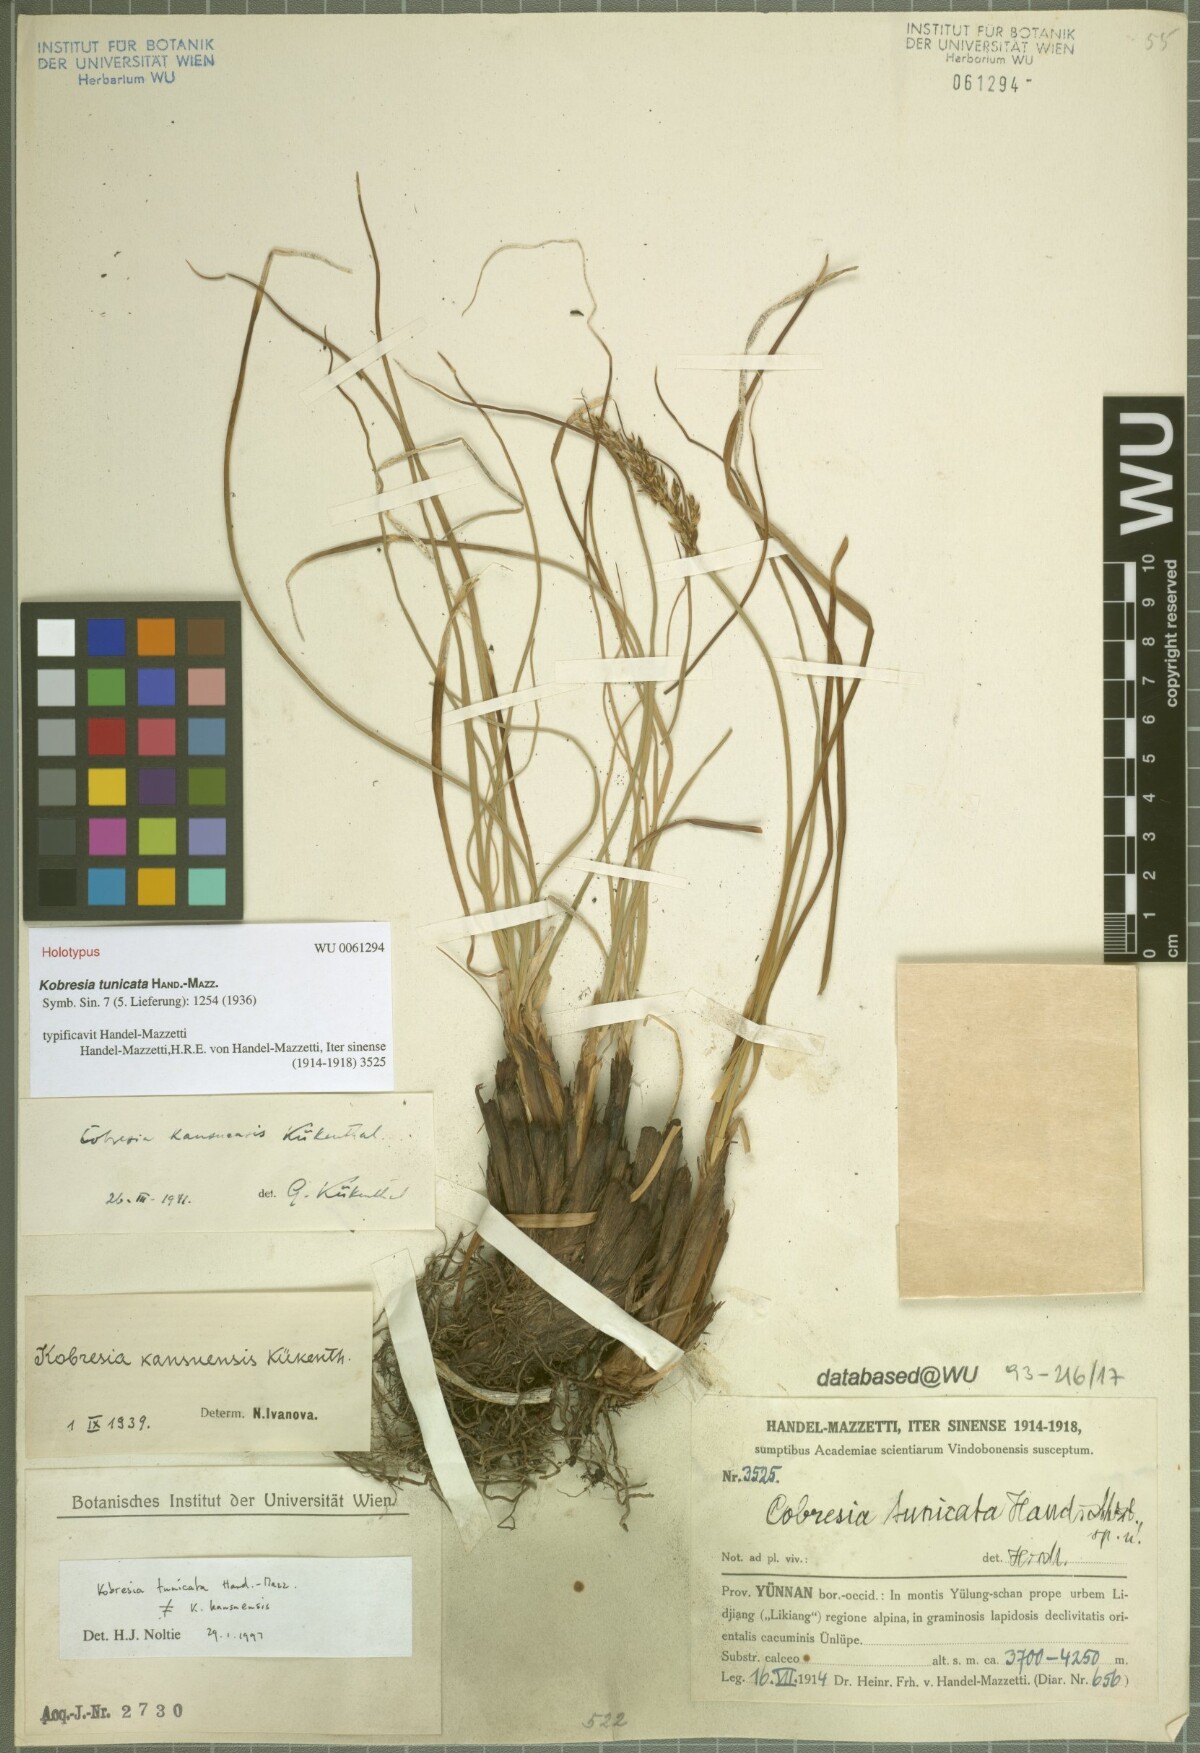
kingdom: Plantae
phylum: Tracheophyta
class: Liliopsida
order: Poales
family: Cyperaceae
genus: Carex
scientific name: Carex tunicata
